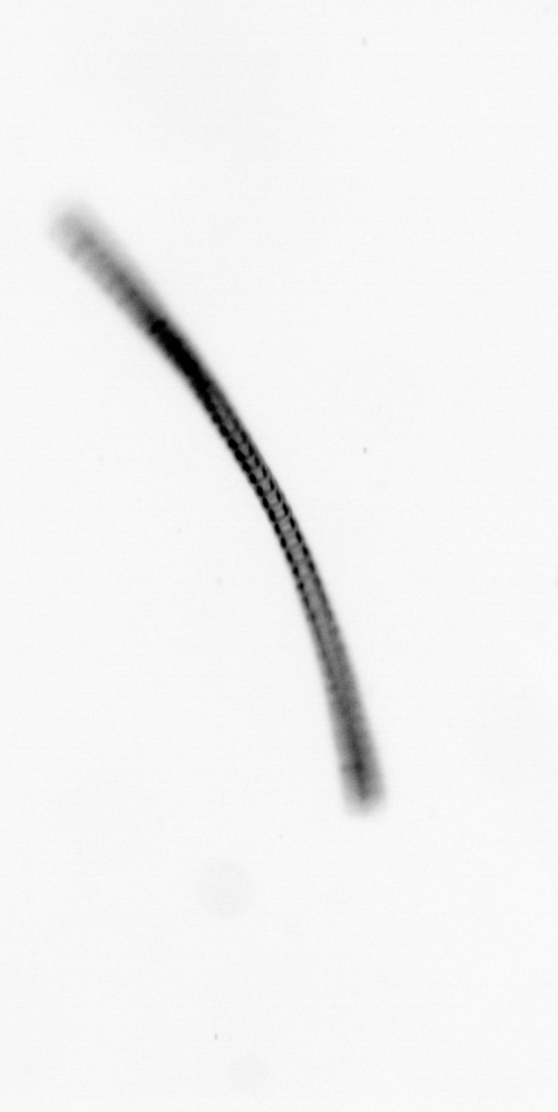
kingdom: Chromista
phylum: Ochrophyta
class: Bacillariophyceae
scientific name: Bacillariophyceae
